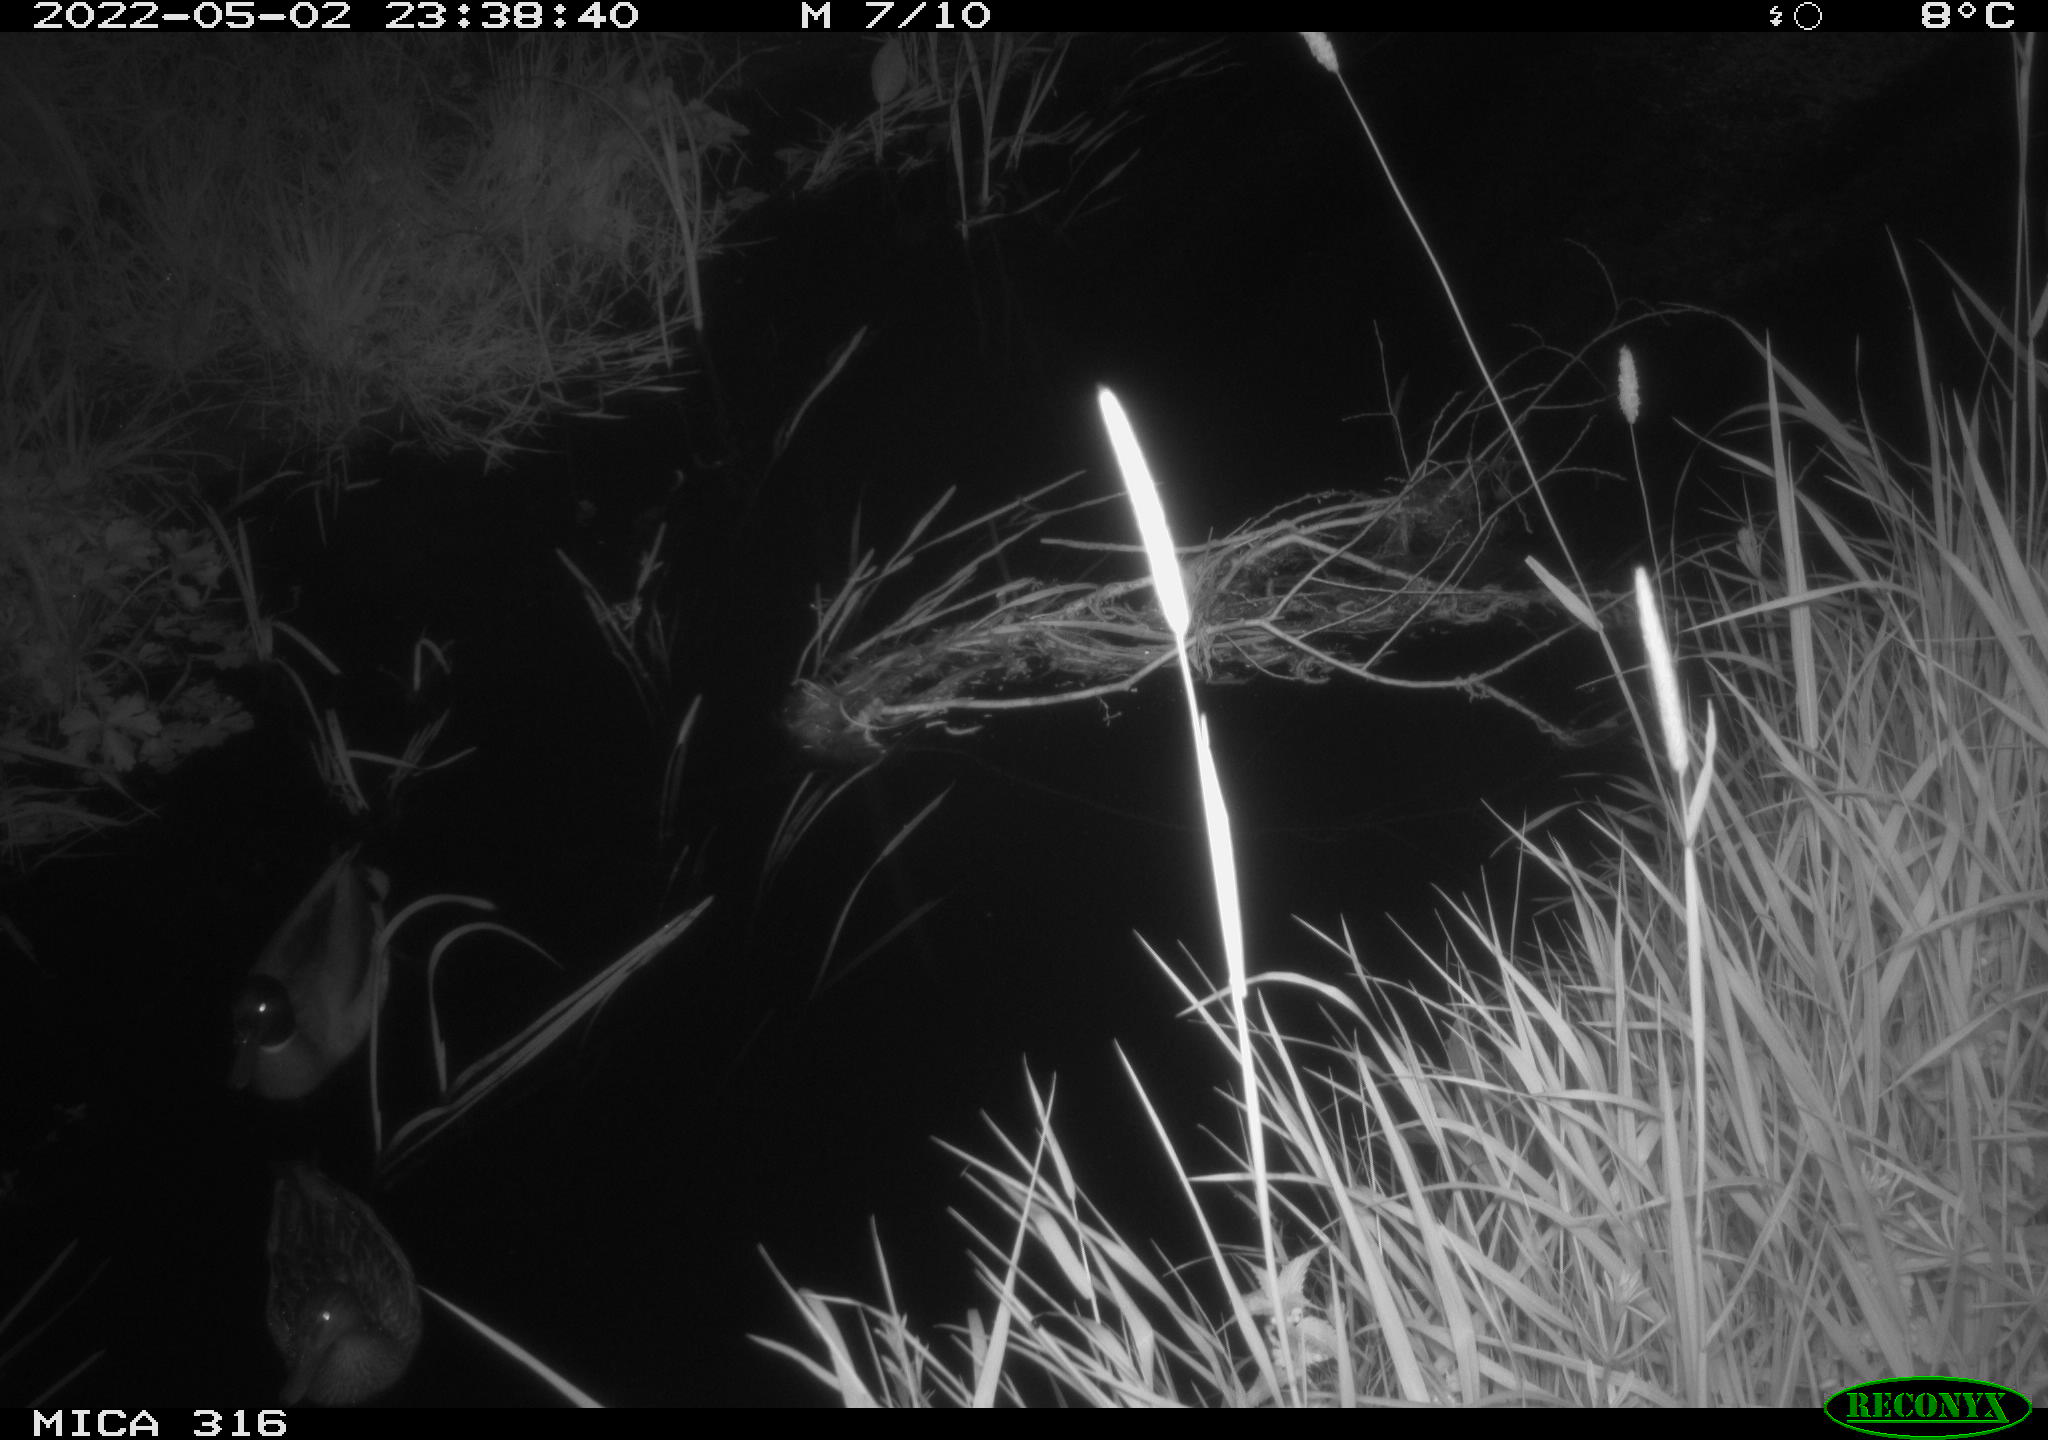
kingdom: Animalia
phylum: Chordata
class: Aves
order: Anseriformes
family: Anatidae
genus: Anas
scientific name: Anas platyrhynchos
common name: Mallard
